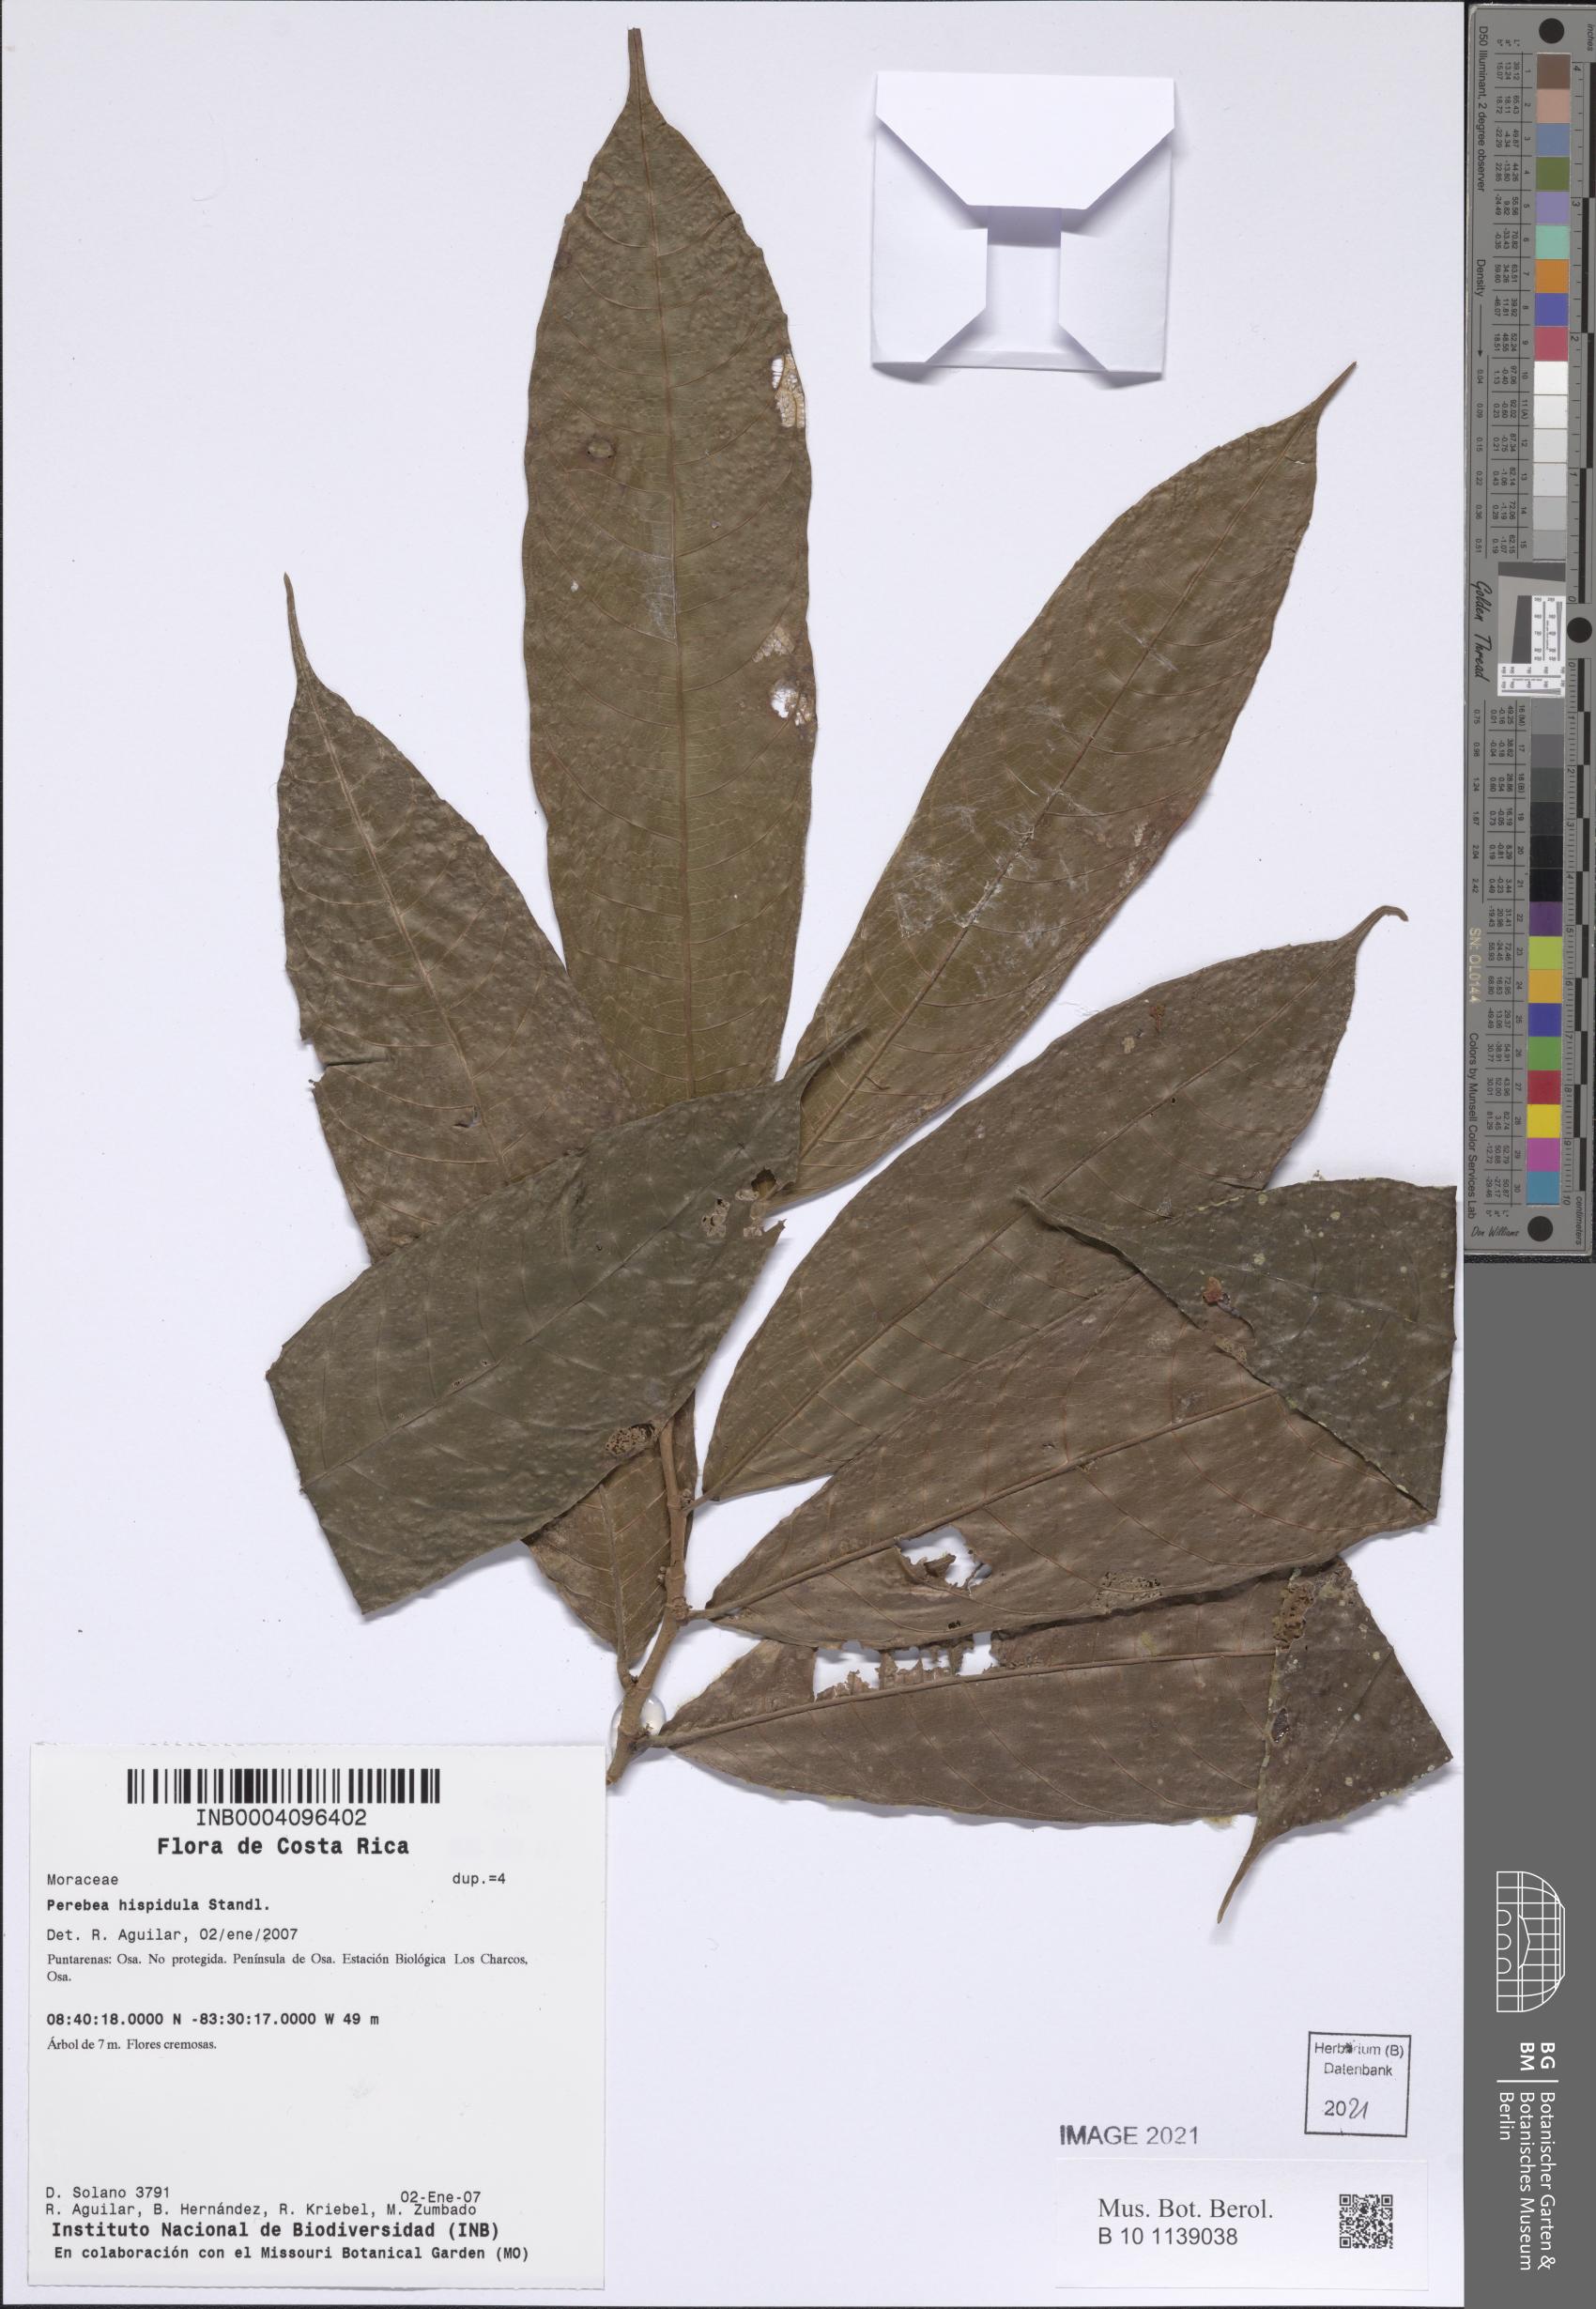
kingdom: Plantae
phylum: Tracheophyta
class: Magnoliopsida
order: Rosales
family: Moraceae
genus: Perebea
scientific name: Perebea xanthochyma
